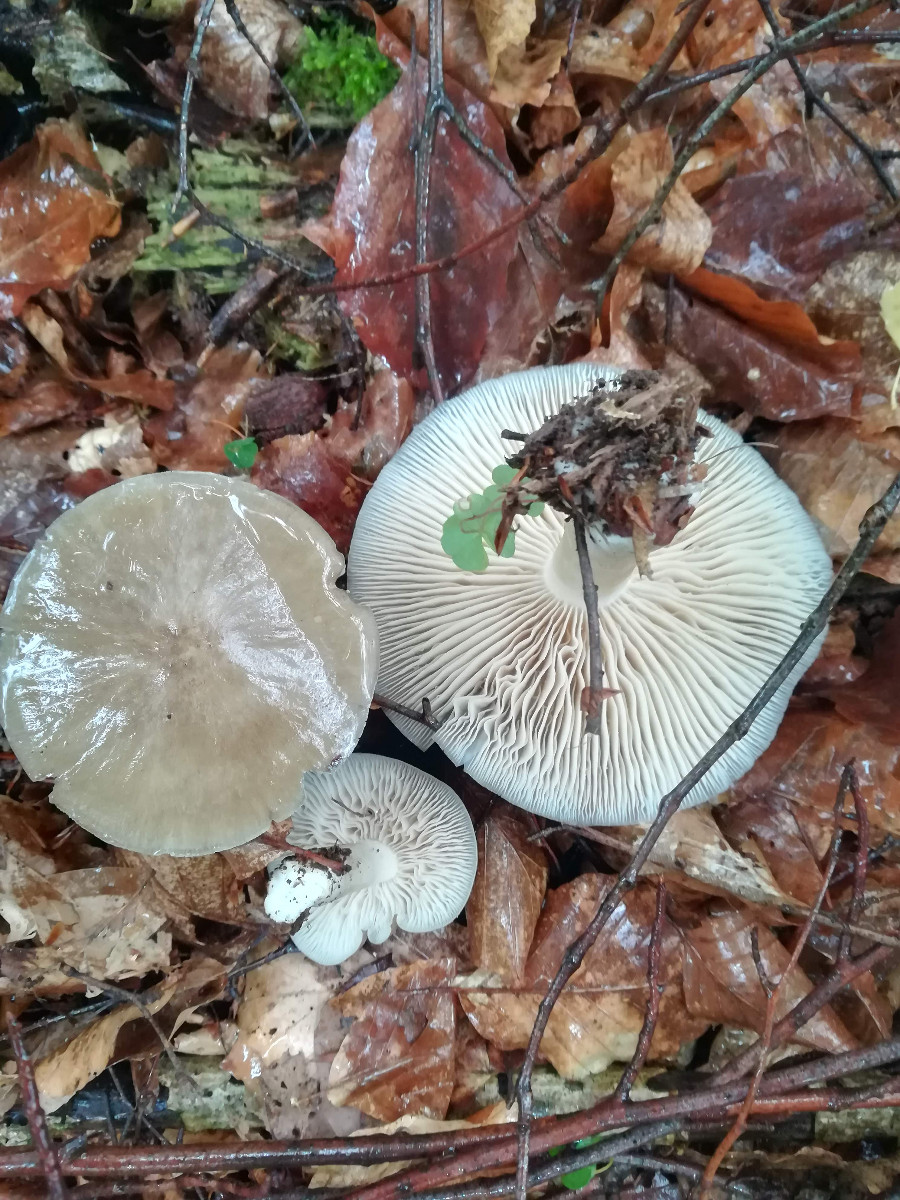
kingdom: Fungi
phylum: Basidiomycota
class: Agaricomycetes
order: Agaricales
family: Tricholomataceae
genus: Megacollybia
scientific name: Megacollybia platyphylla
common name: bredbladet væbnerhat
